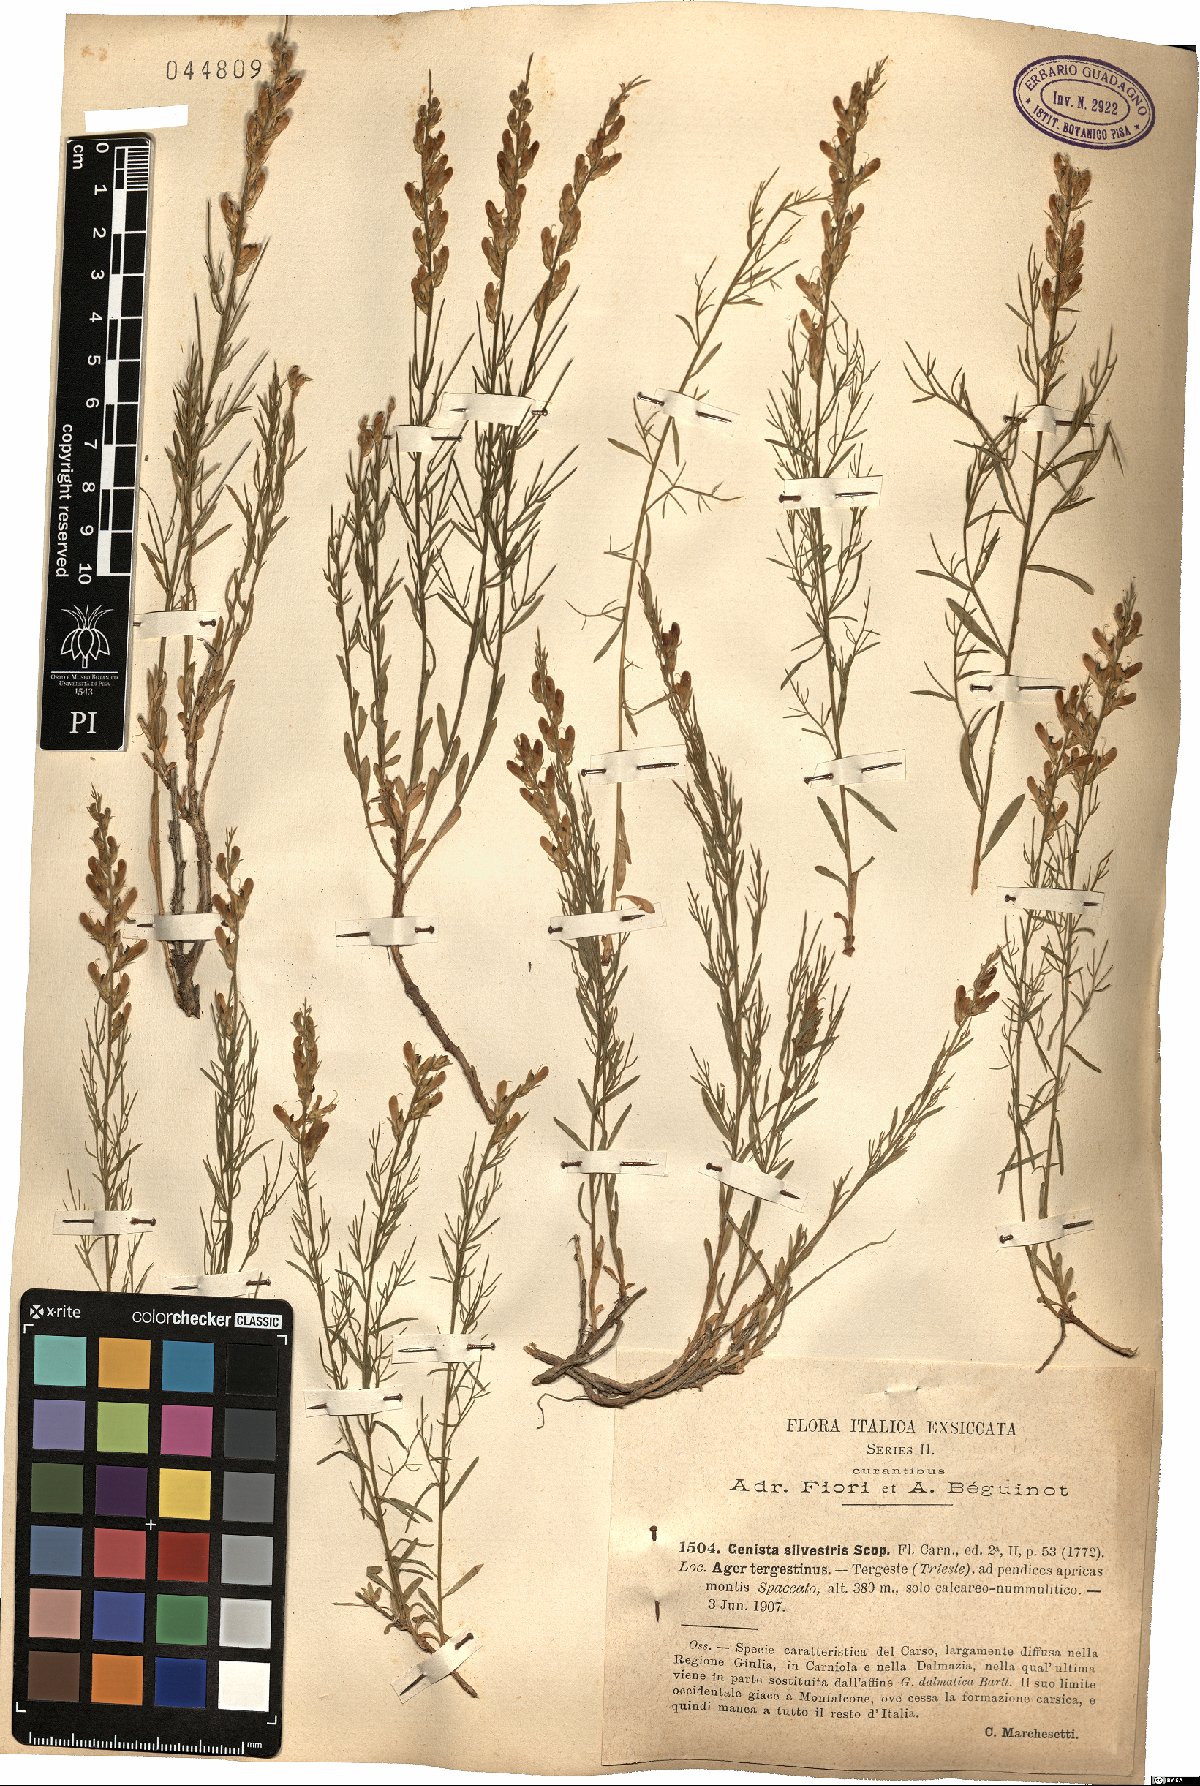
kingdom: Plantae
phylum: Tracheophyta
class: Magnoliopsida
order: Fabales
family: Fabaceae
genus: Genista
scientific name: Genista sylvestris
